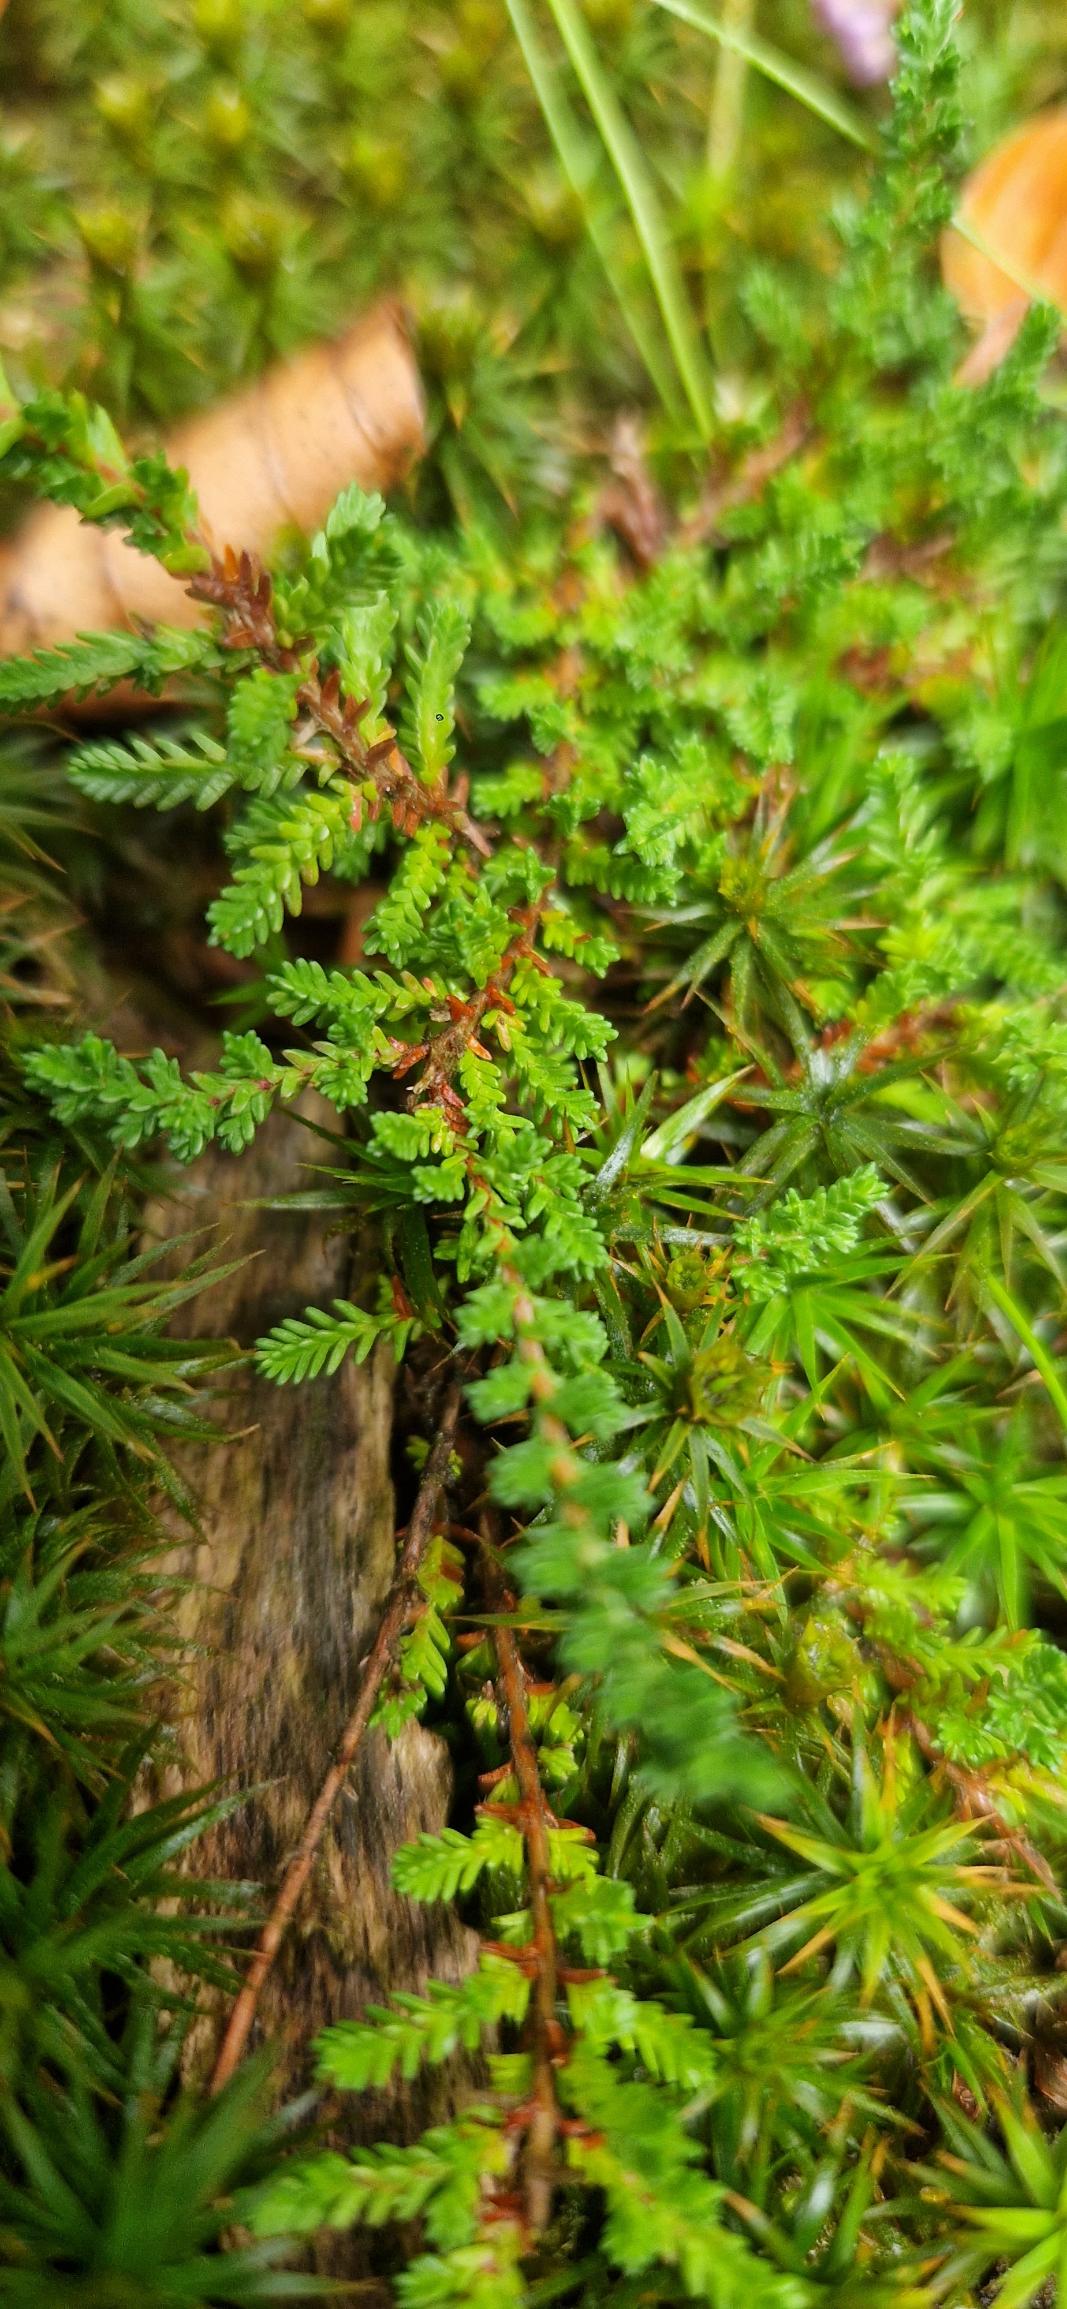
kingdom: Plantae
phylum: Tracheophyta
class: Magnoliopsida
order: Ericales
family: Ericaceae
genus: Calluna
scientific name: Calluna vulgaris
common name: Hedelyng
